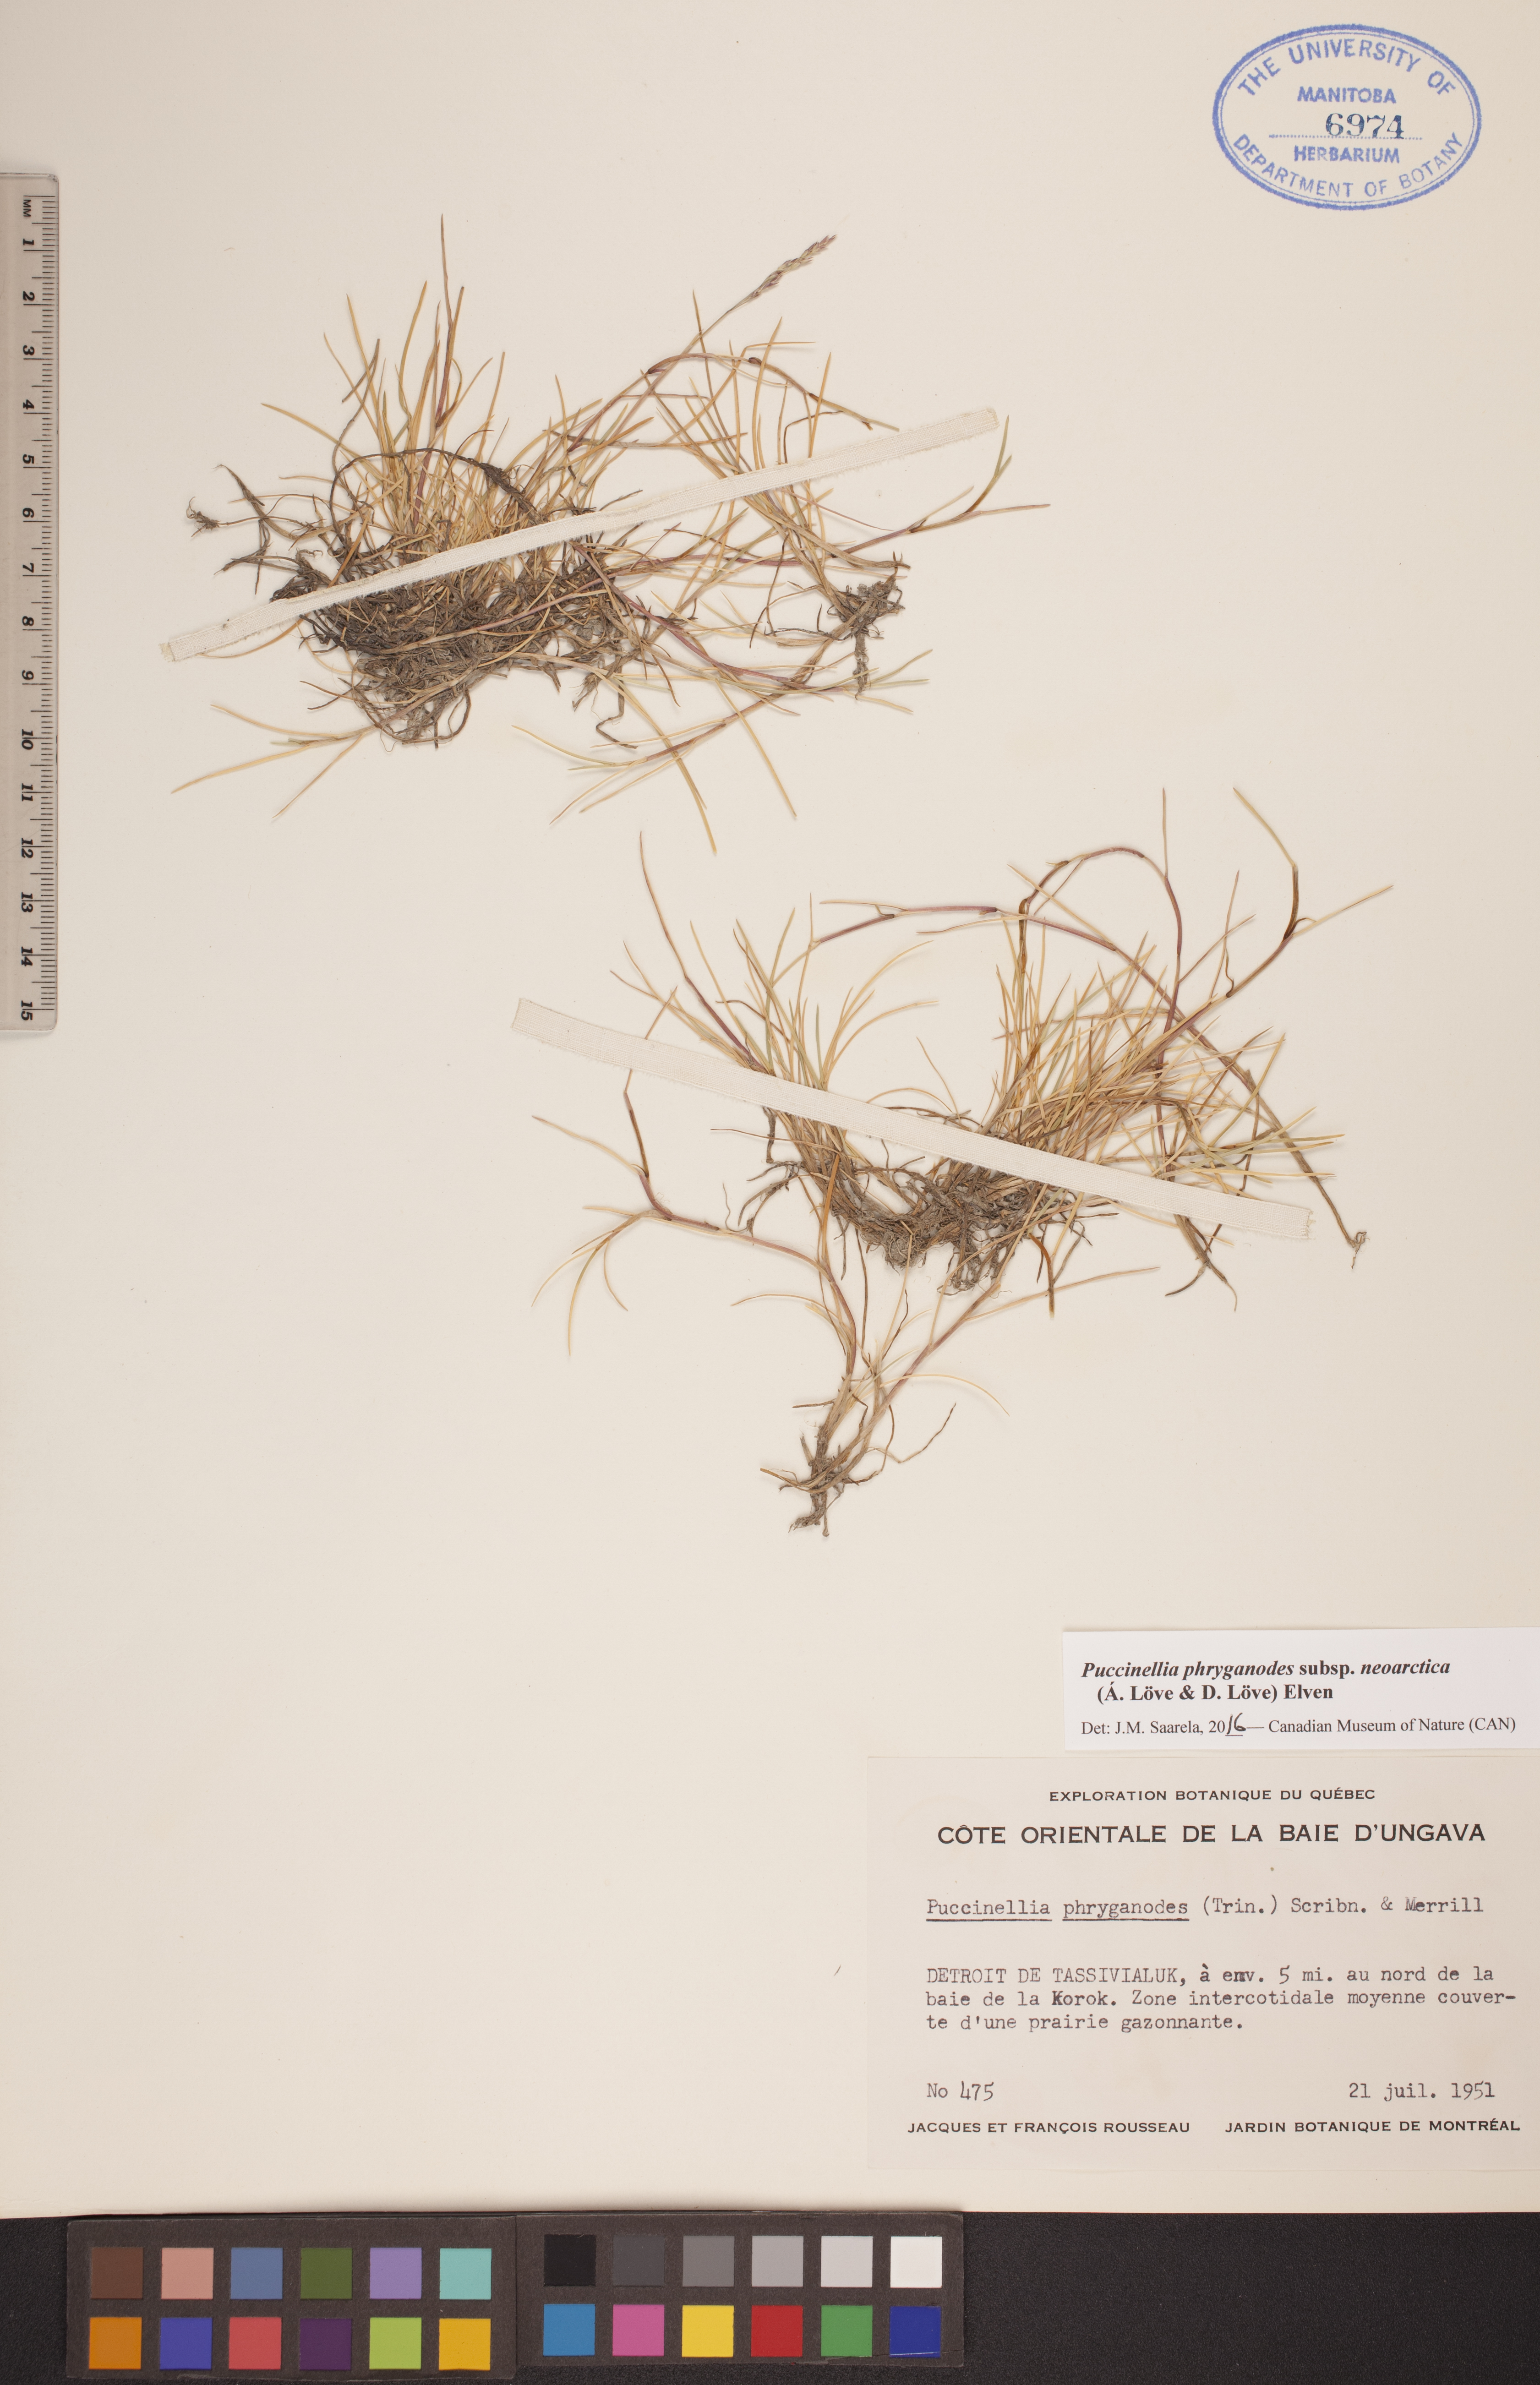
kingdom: Plantae
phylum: Tracheophyta
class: Liliopsida
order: Poales
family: Poaceae
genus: Puccinellia
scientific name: Puccinellia phryganodes
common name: Creeping alkaligrass
